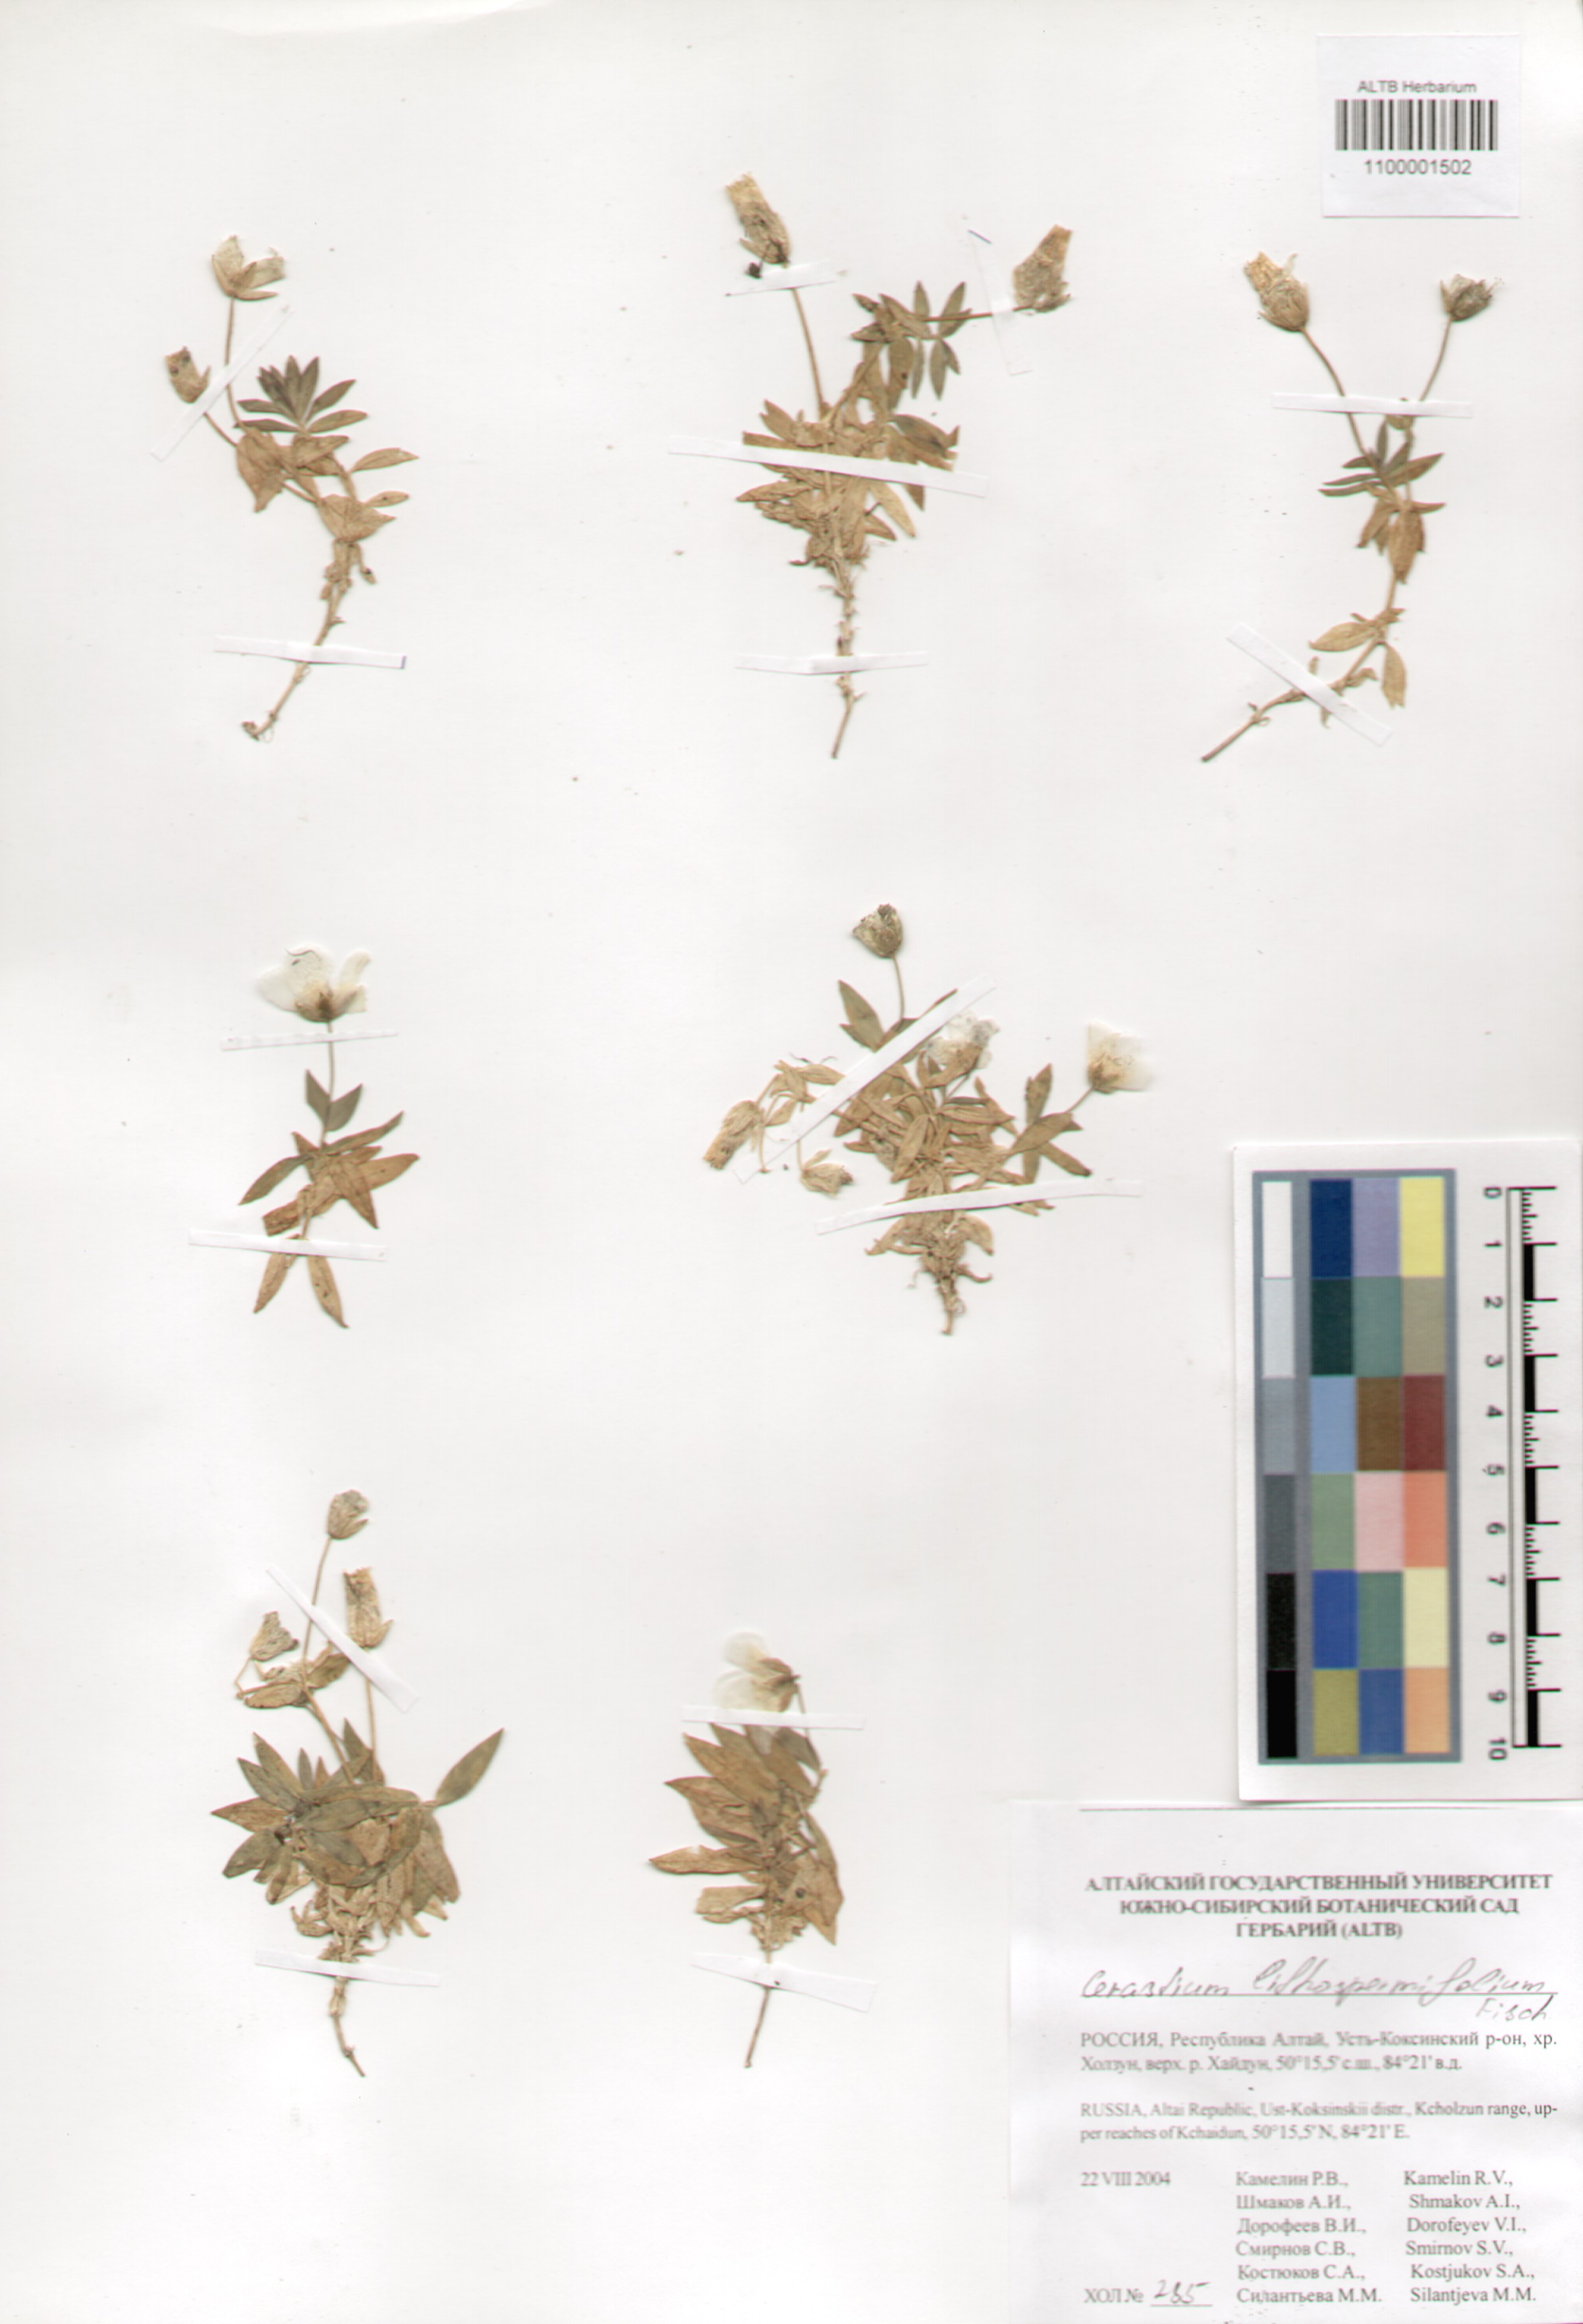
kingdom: Plantae
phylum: Tracheophyta
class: Magnoliopsida
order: Caryophyllales
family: Caryophyllaceae
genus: Cerastium
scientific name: Cerastium lithospermifolium
